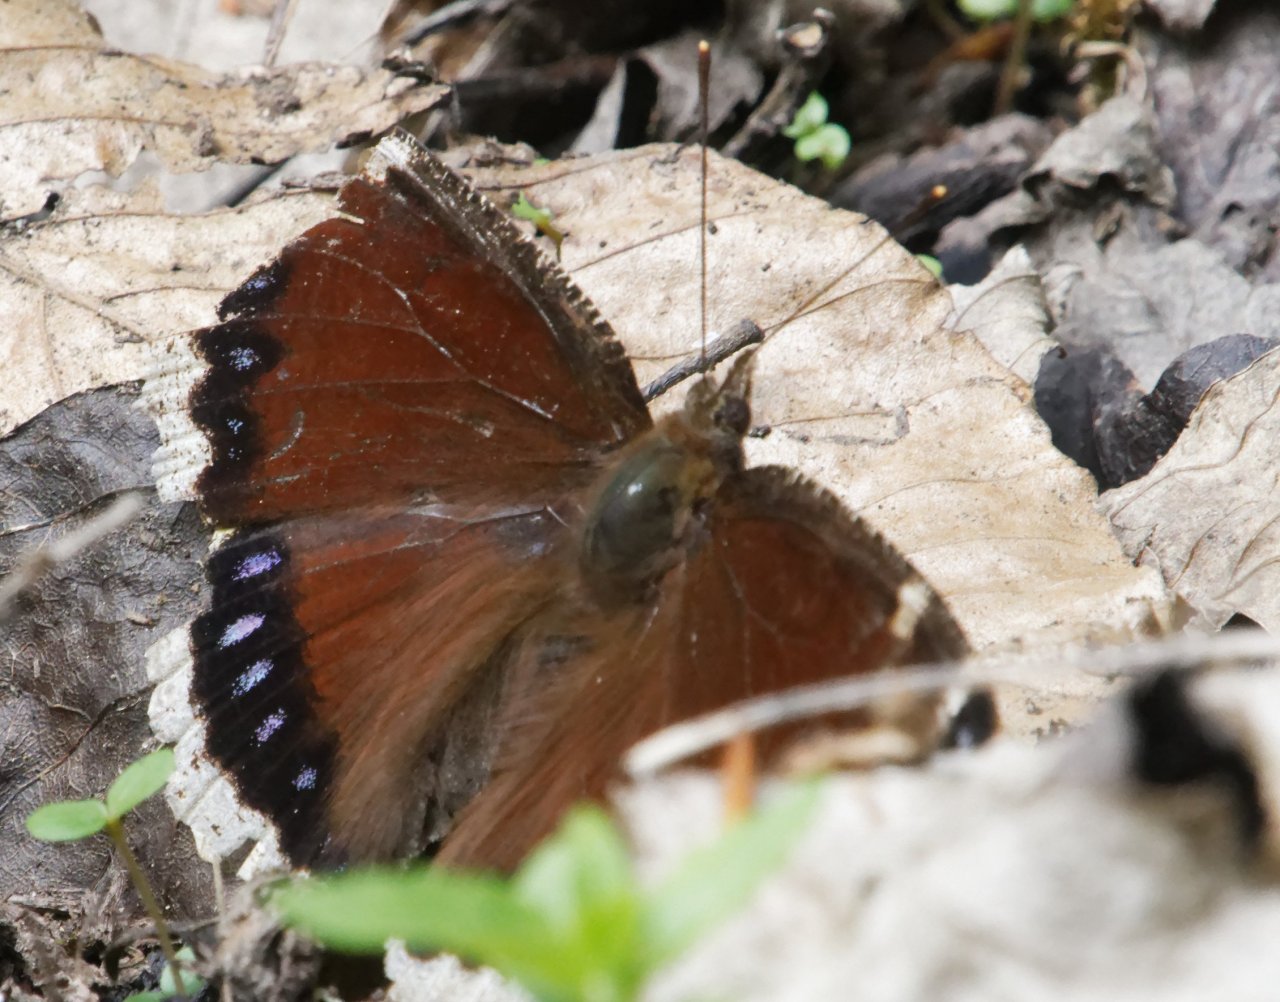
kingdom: Animalia
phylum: Arthropoda
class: Insecta
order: Lepidoptera
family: Nymphalidae
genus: Nymphalis
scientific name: Nymphalis antiopa
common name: Mourning Cloak
